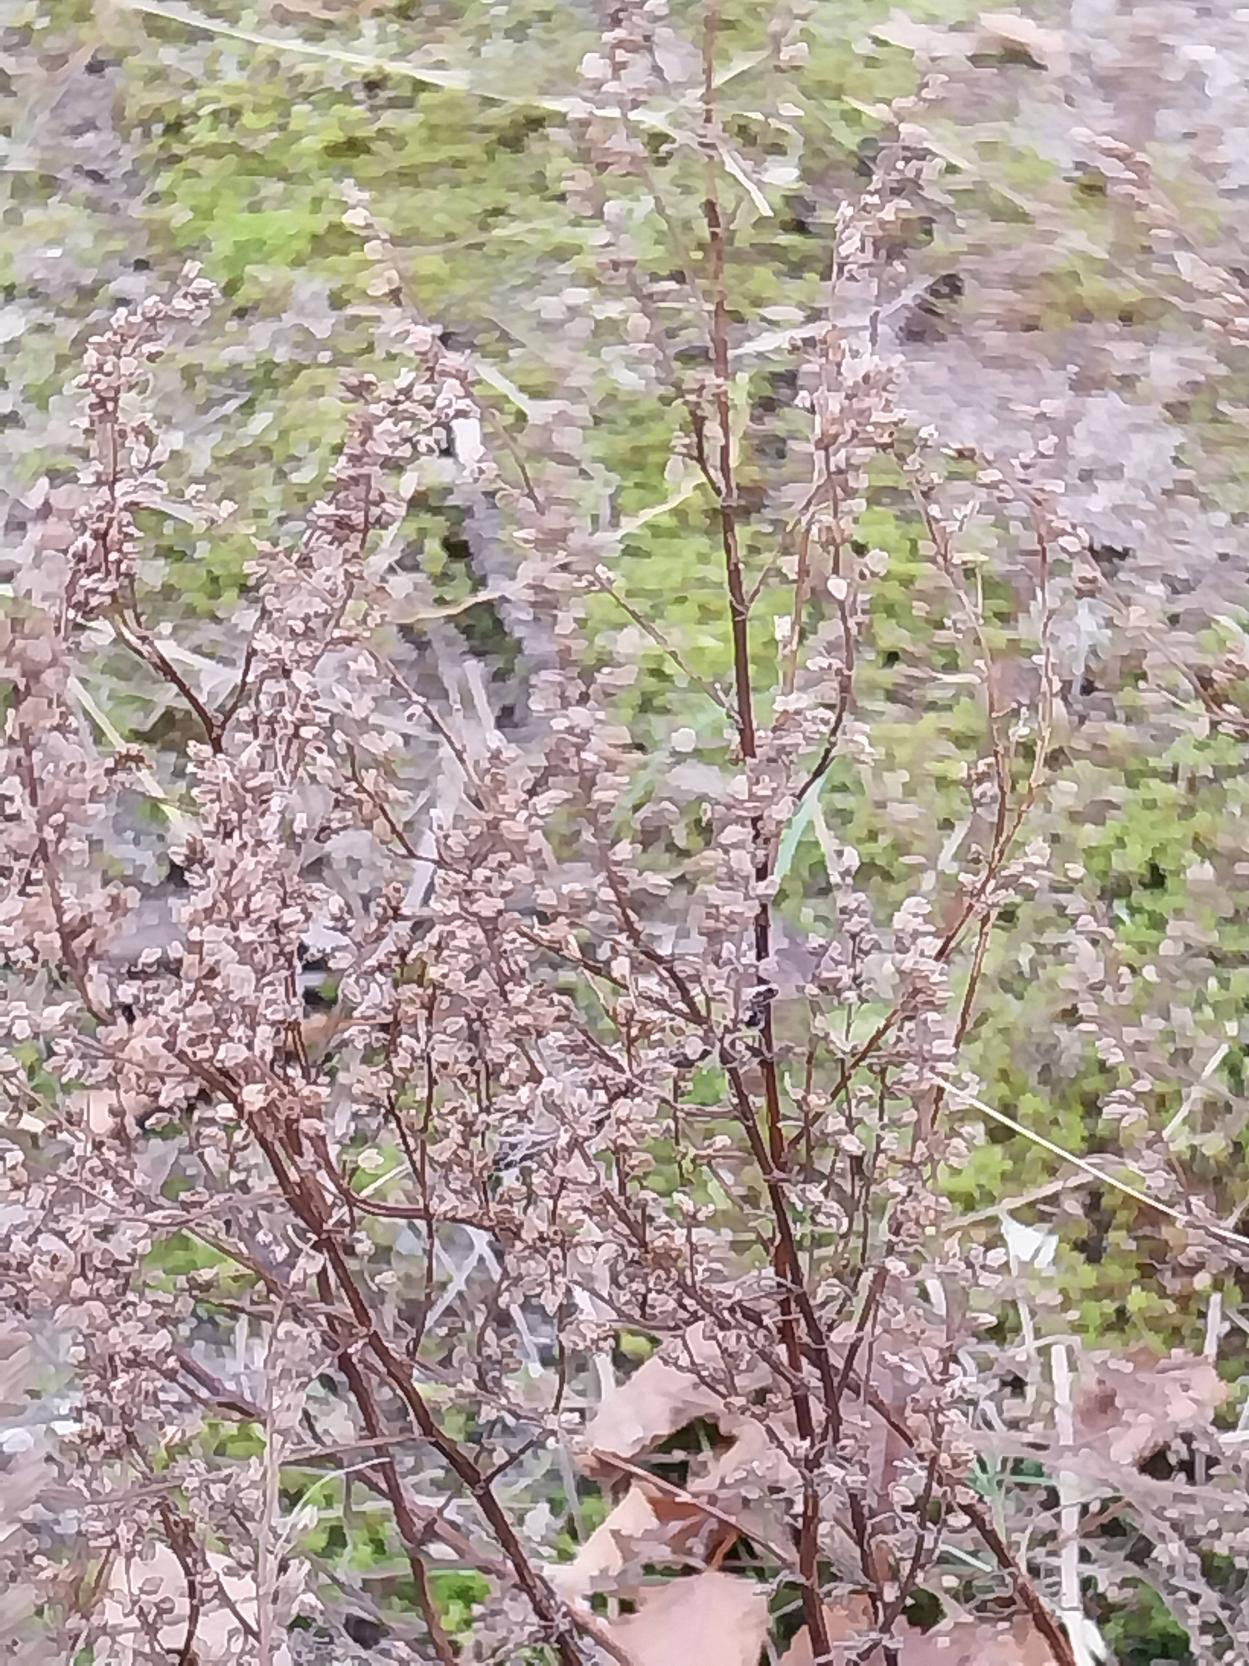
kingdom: Plantae
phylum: Tracheophyta
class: Magnoliopsida
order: Asterales
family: Asteraceae
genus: Artemisia
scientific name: Artemisia campestris
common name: Mark-bynke
